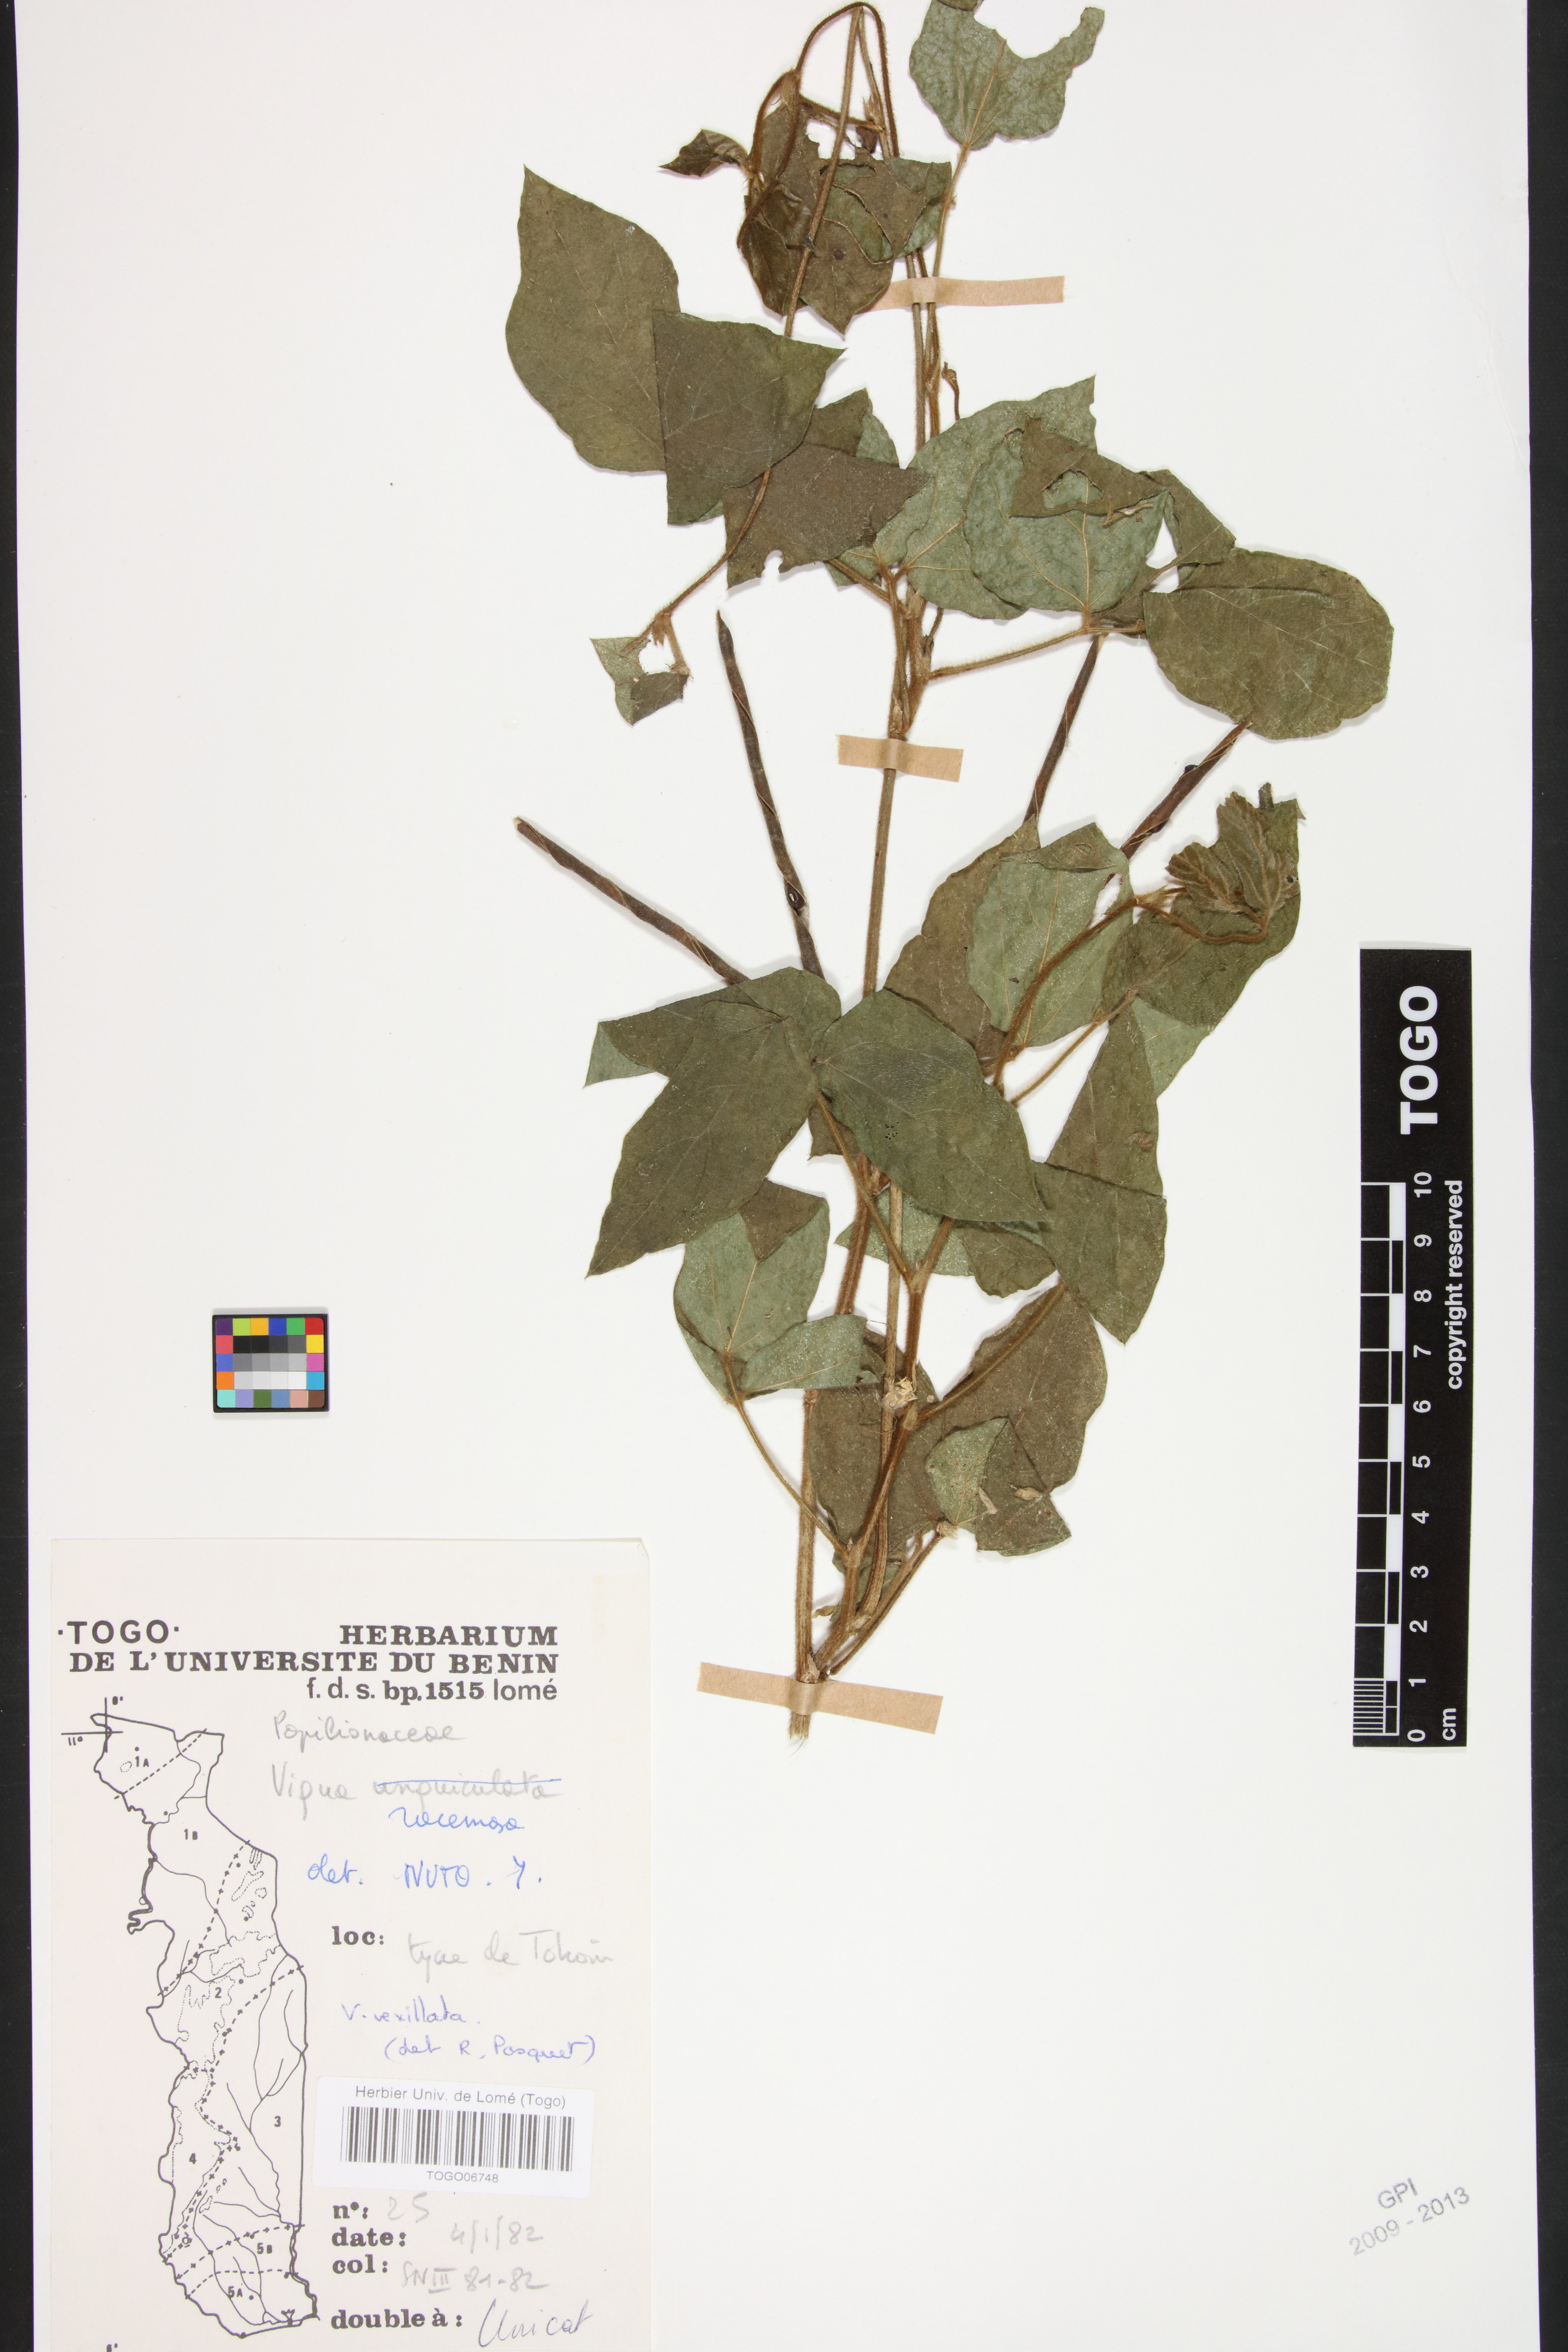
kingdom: Plantae
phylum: Tracheophyta
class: Magnoliopsida
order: Fabales
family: Fabaceae
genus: Vigna
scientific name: Vigna racemosa
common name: Beans not eaten
